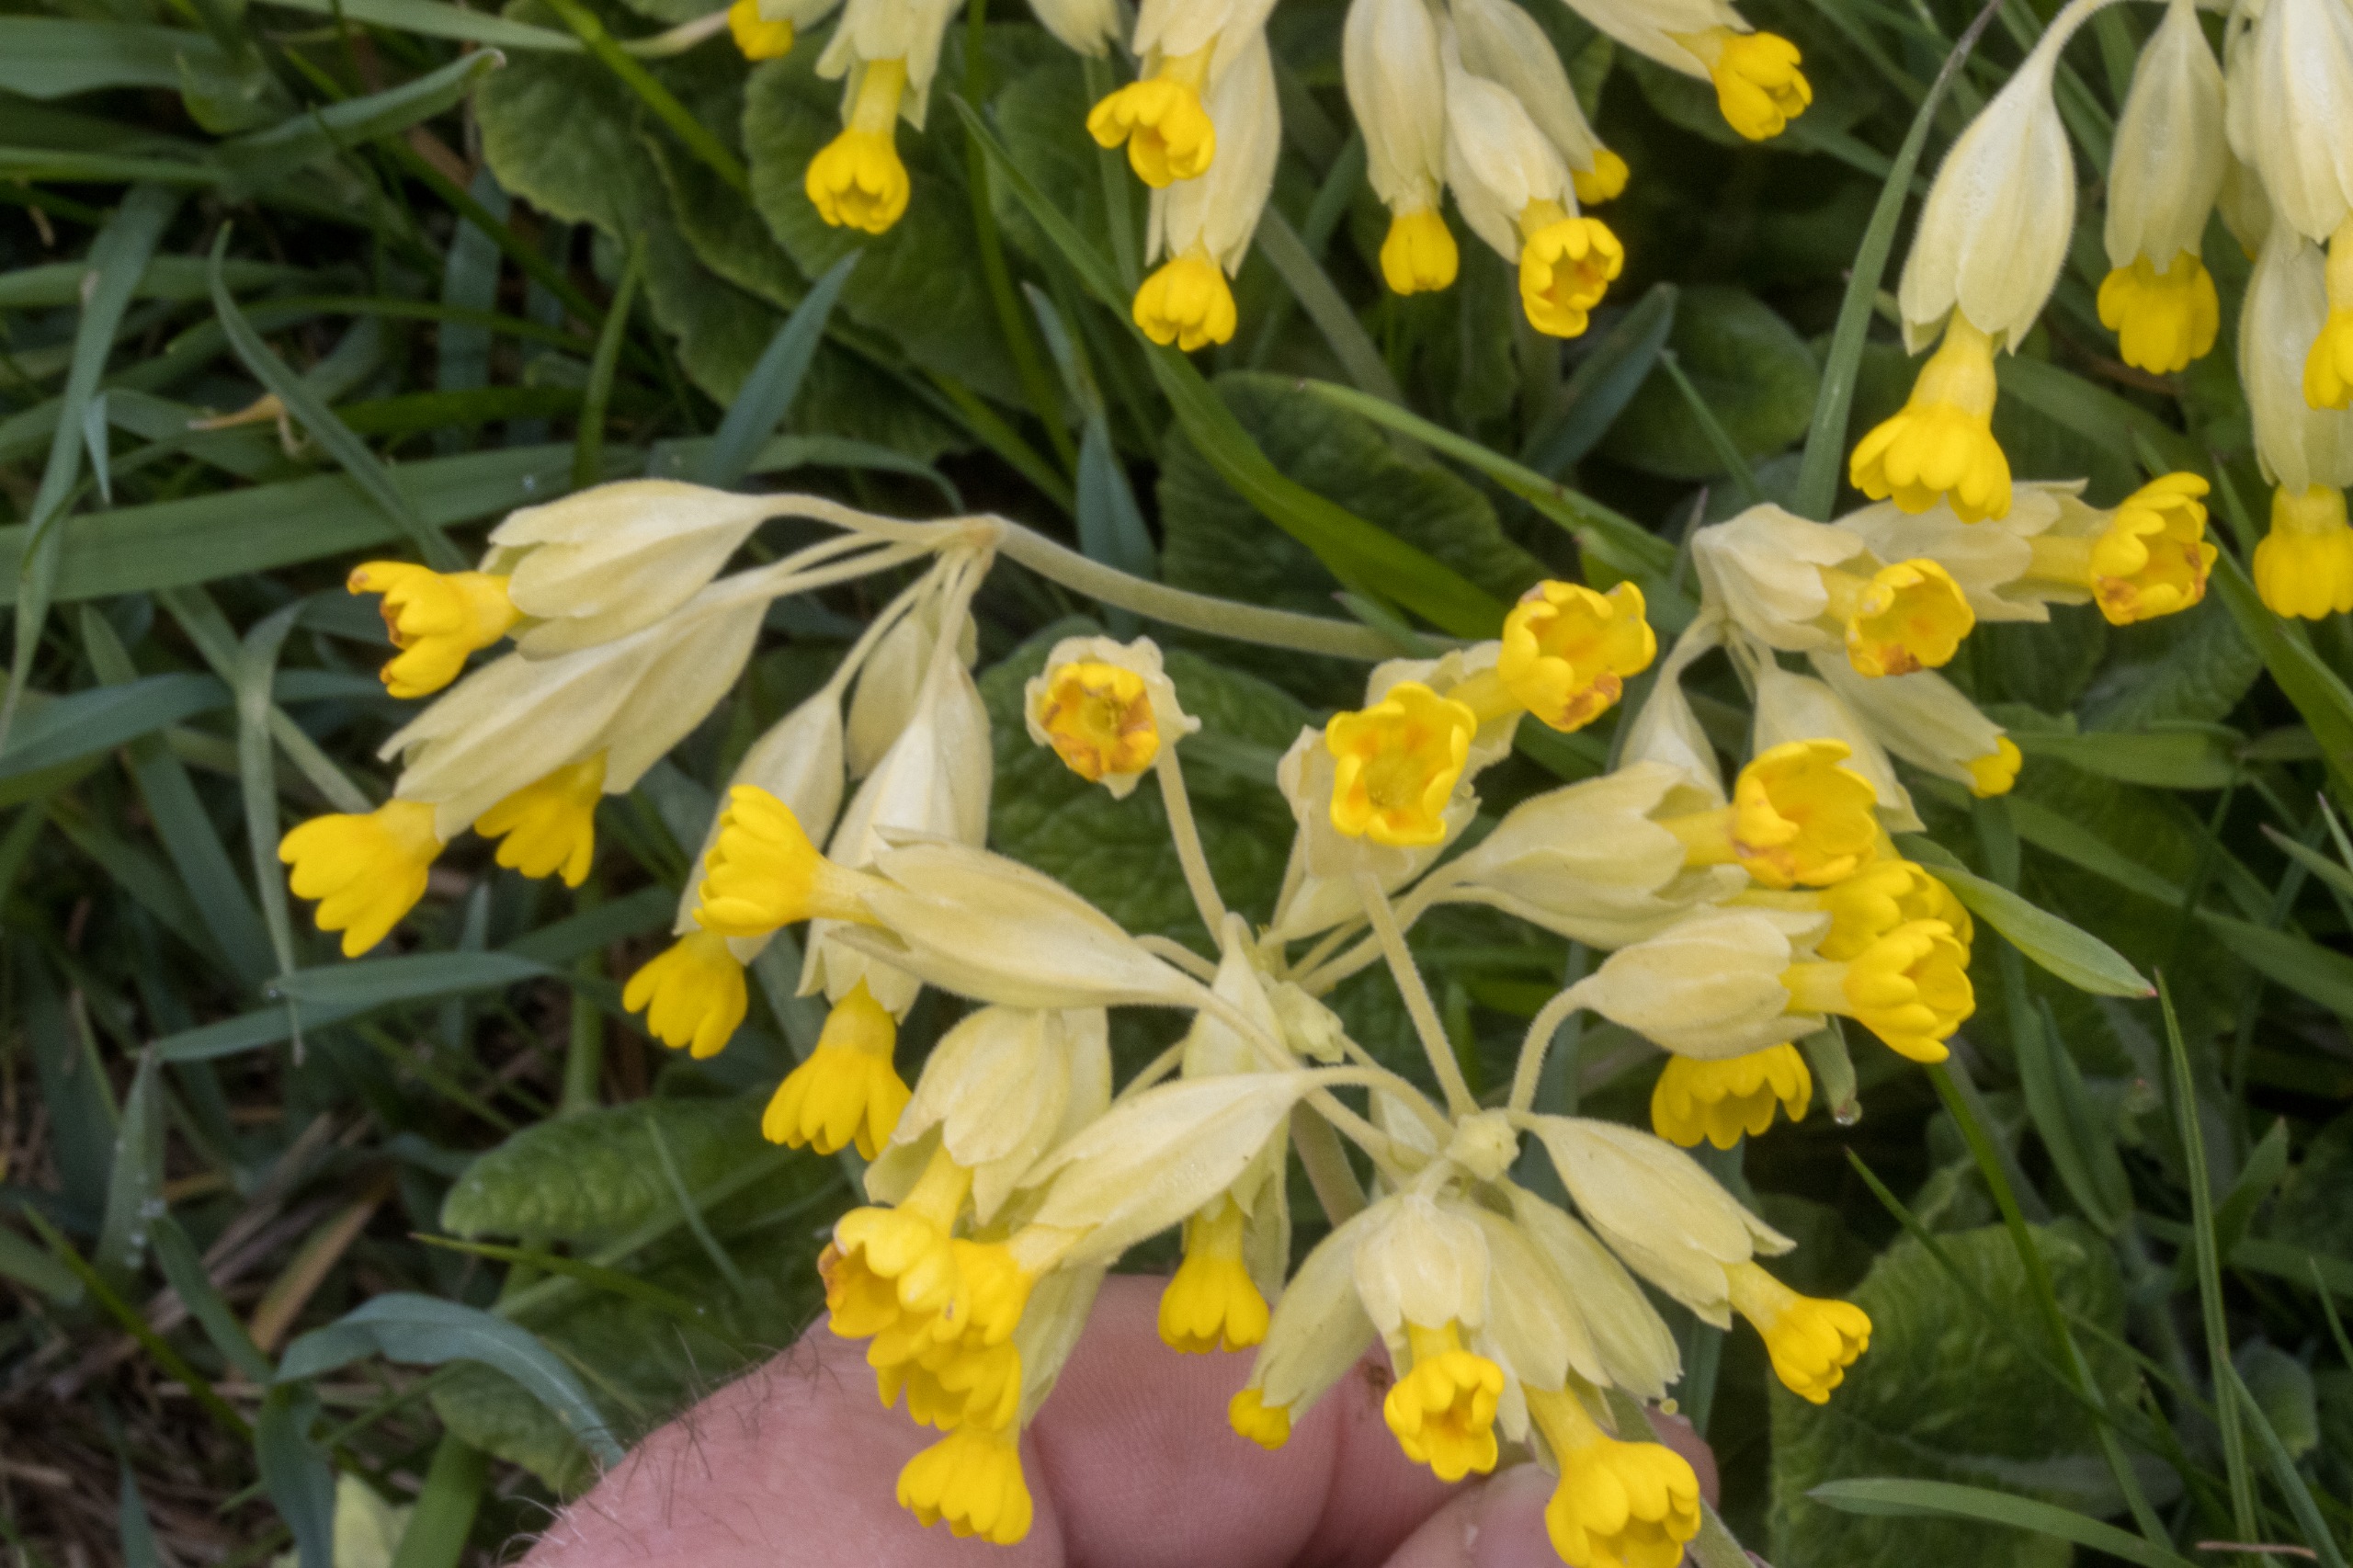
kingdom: Plantae
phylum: Tracheophyta
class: Magnoliopsida
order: Ericales
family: Primulaceae
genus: Primula
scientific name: Primula veris
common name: Hulkravet kodriver
